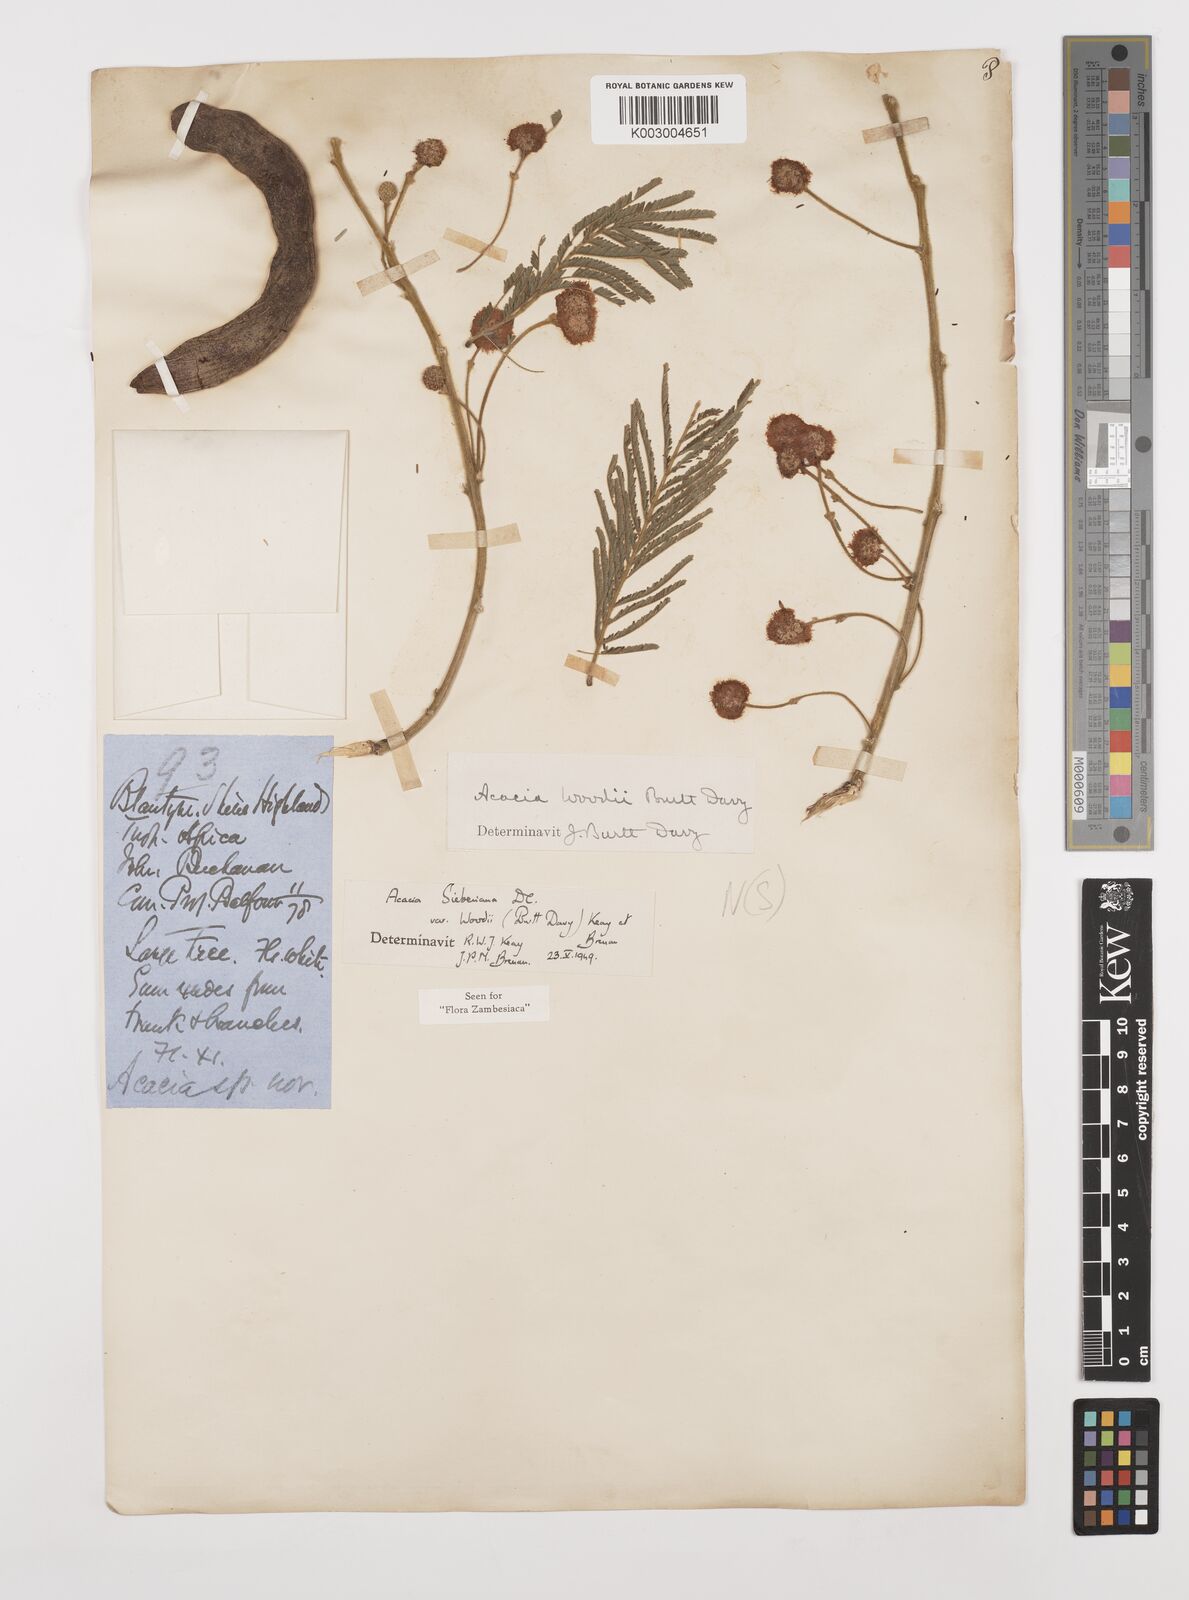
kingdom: Plantae
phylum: Tracheophyta
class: Magnoliopsida
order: Fabales
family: Fabaceae
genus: Vachellia
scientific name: Vachellia sieberiana
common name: Flat-topped thorn
